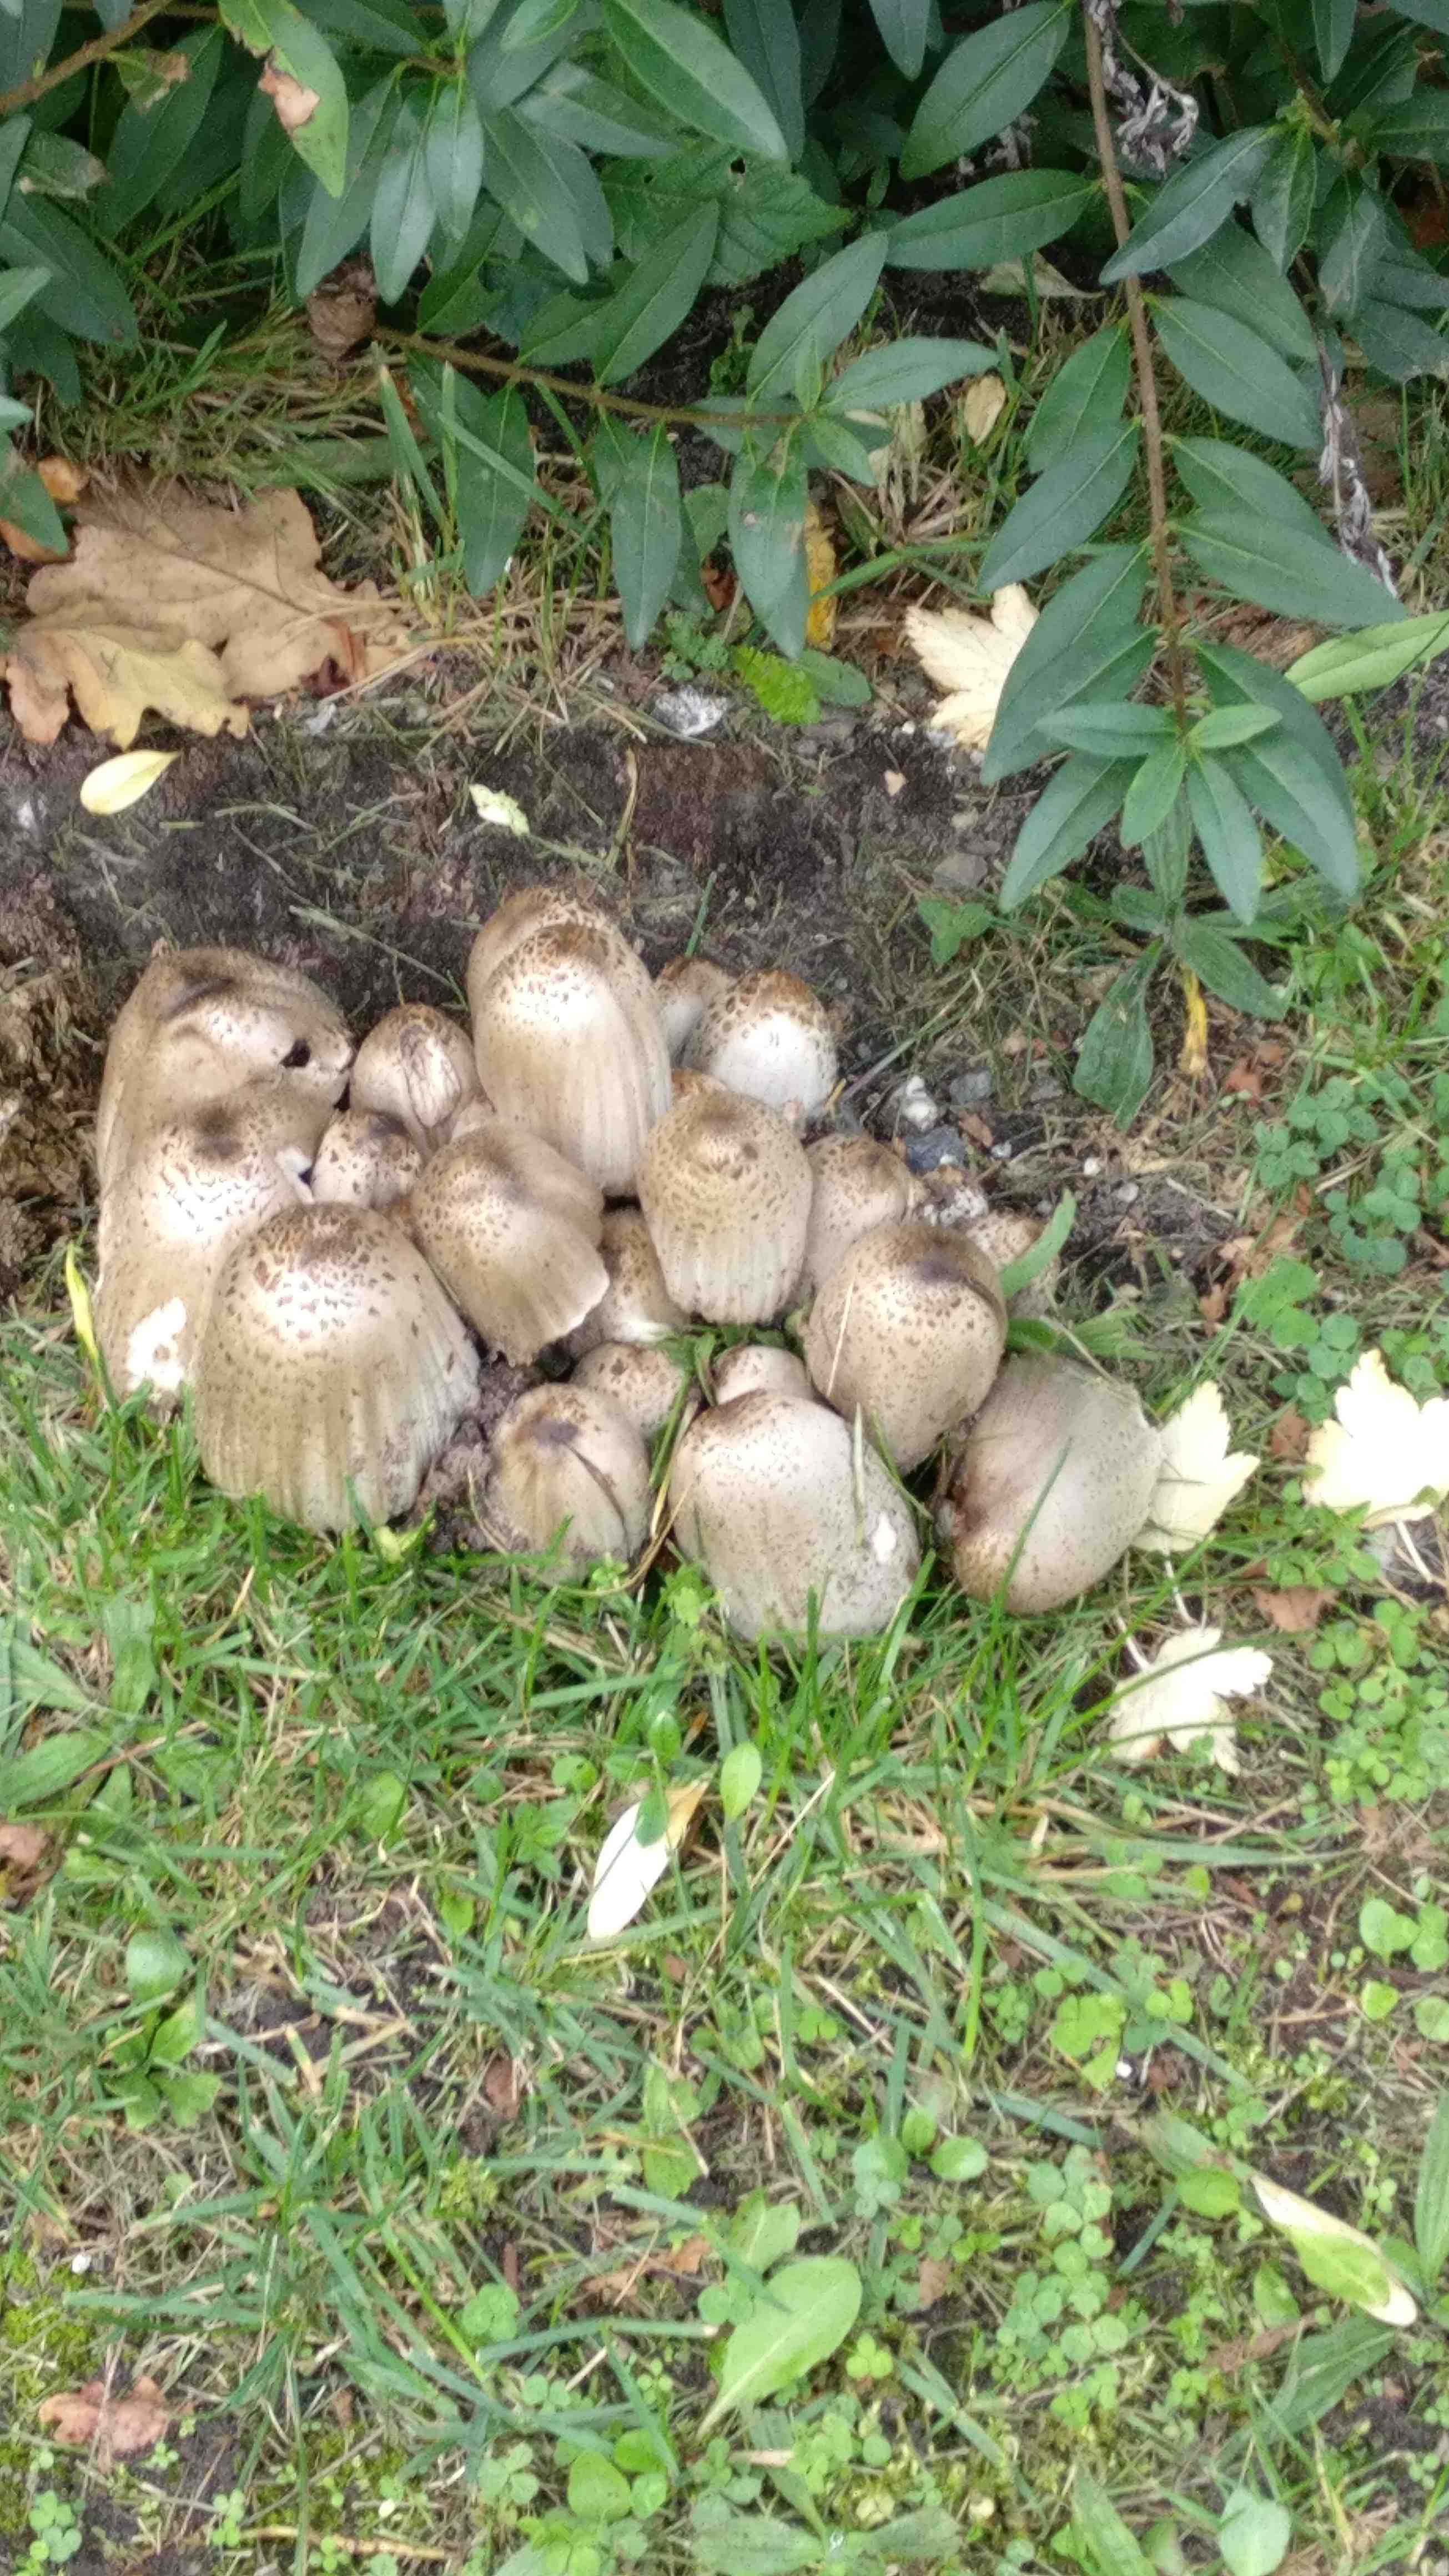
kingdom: Fungi
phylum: Basidiomycota
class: Agaricomycetes
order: Agaricales
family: Psathyrellaceae
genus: Coprinopsis
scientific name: Coprinopsis atramentaria
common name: almindelig blækhat
